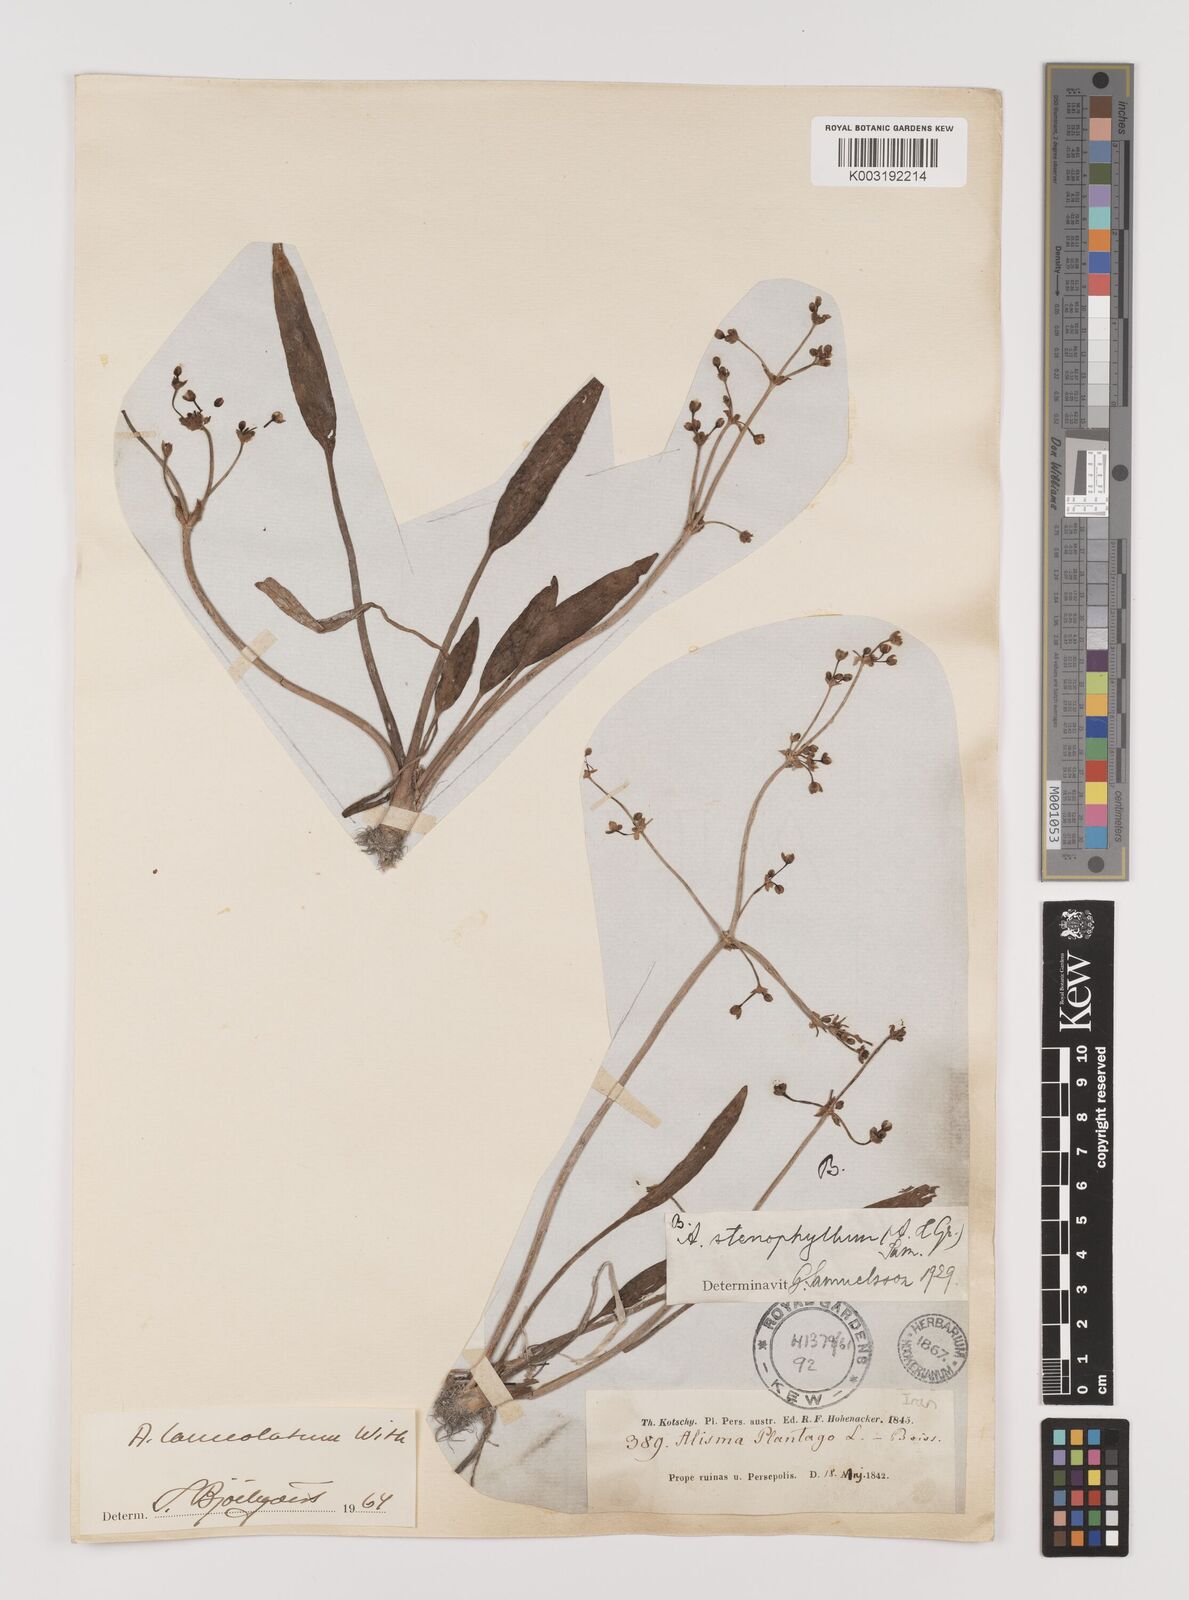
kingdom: Plantae
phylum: Tracheophyta
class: Liliopsida
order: Alismatales
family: Alismataceae
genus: Alisma
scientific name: Alisma lanceolatum
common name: Narrow-leaved water-plantain
